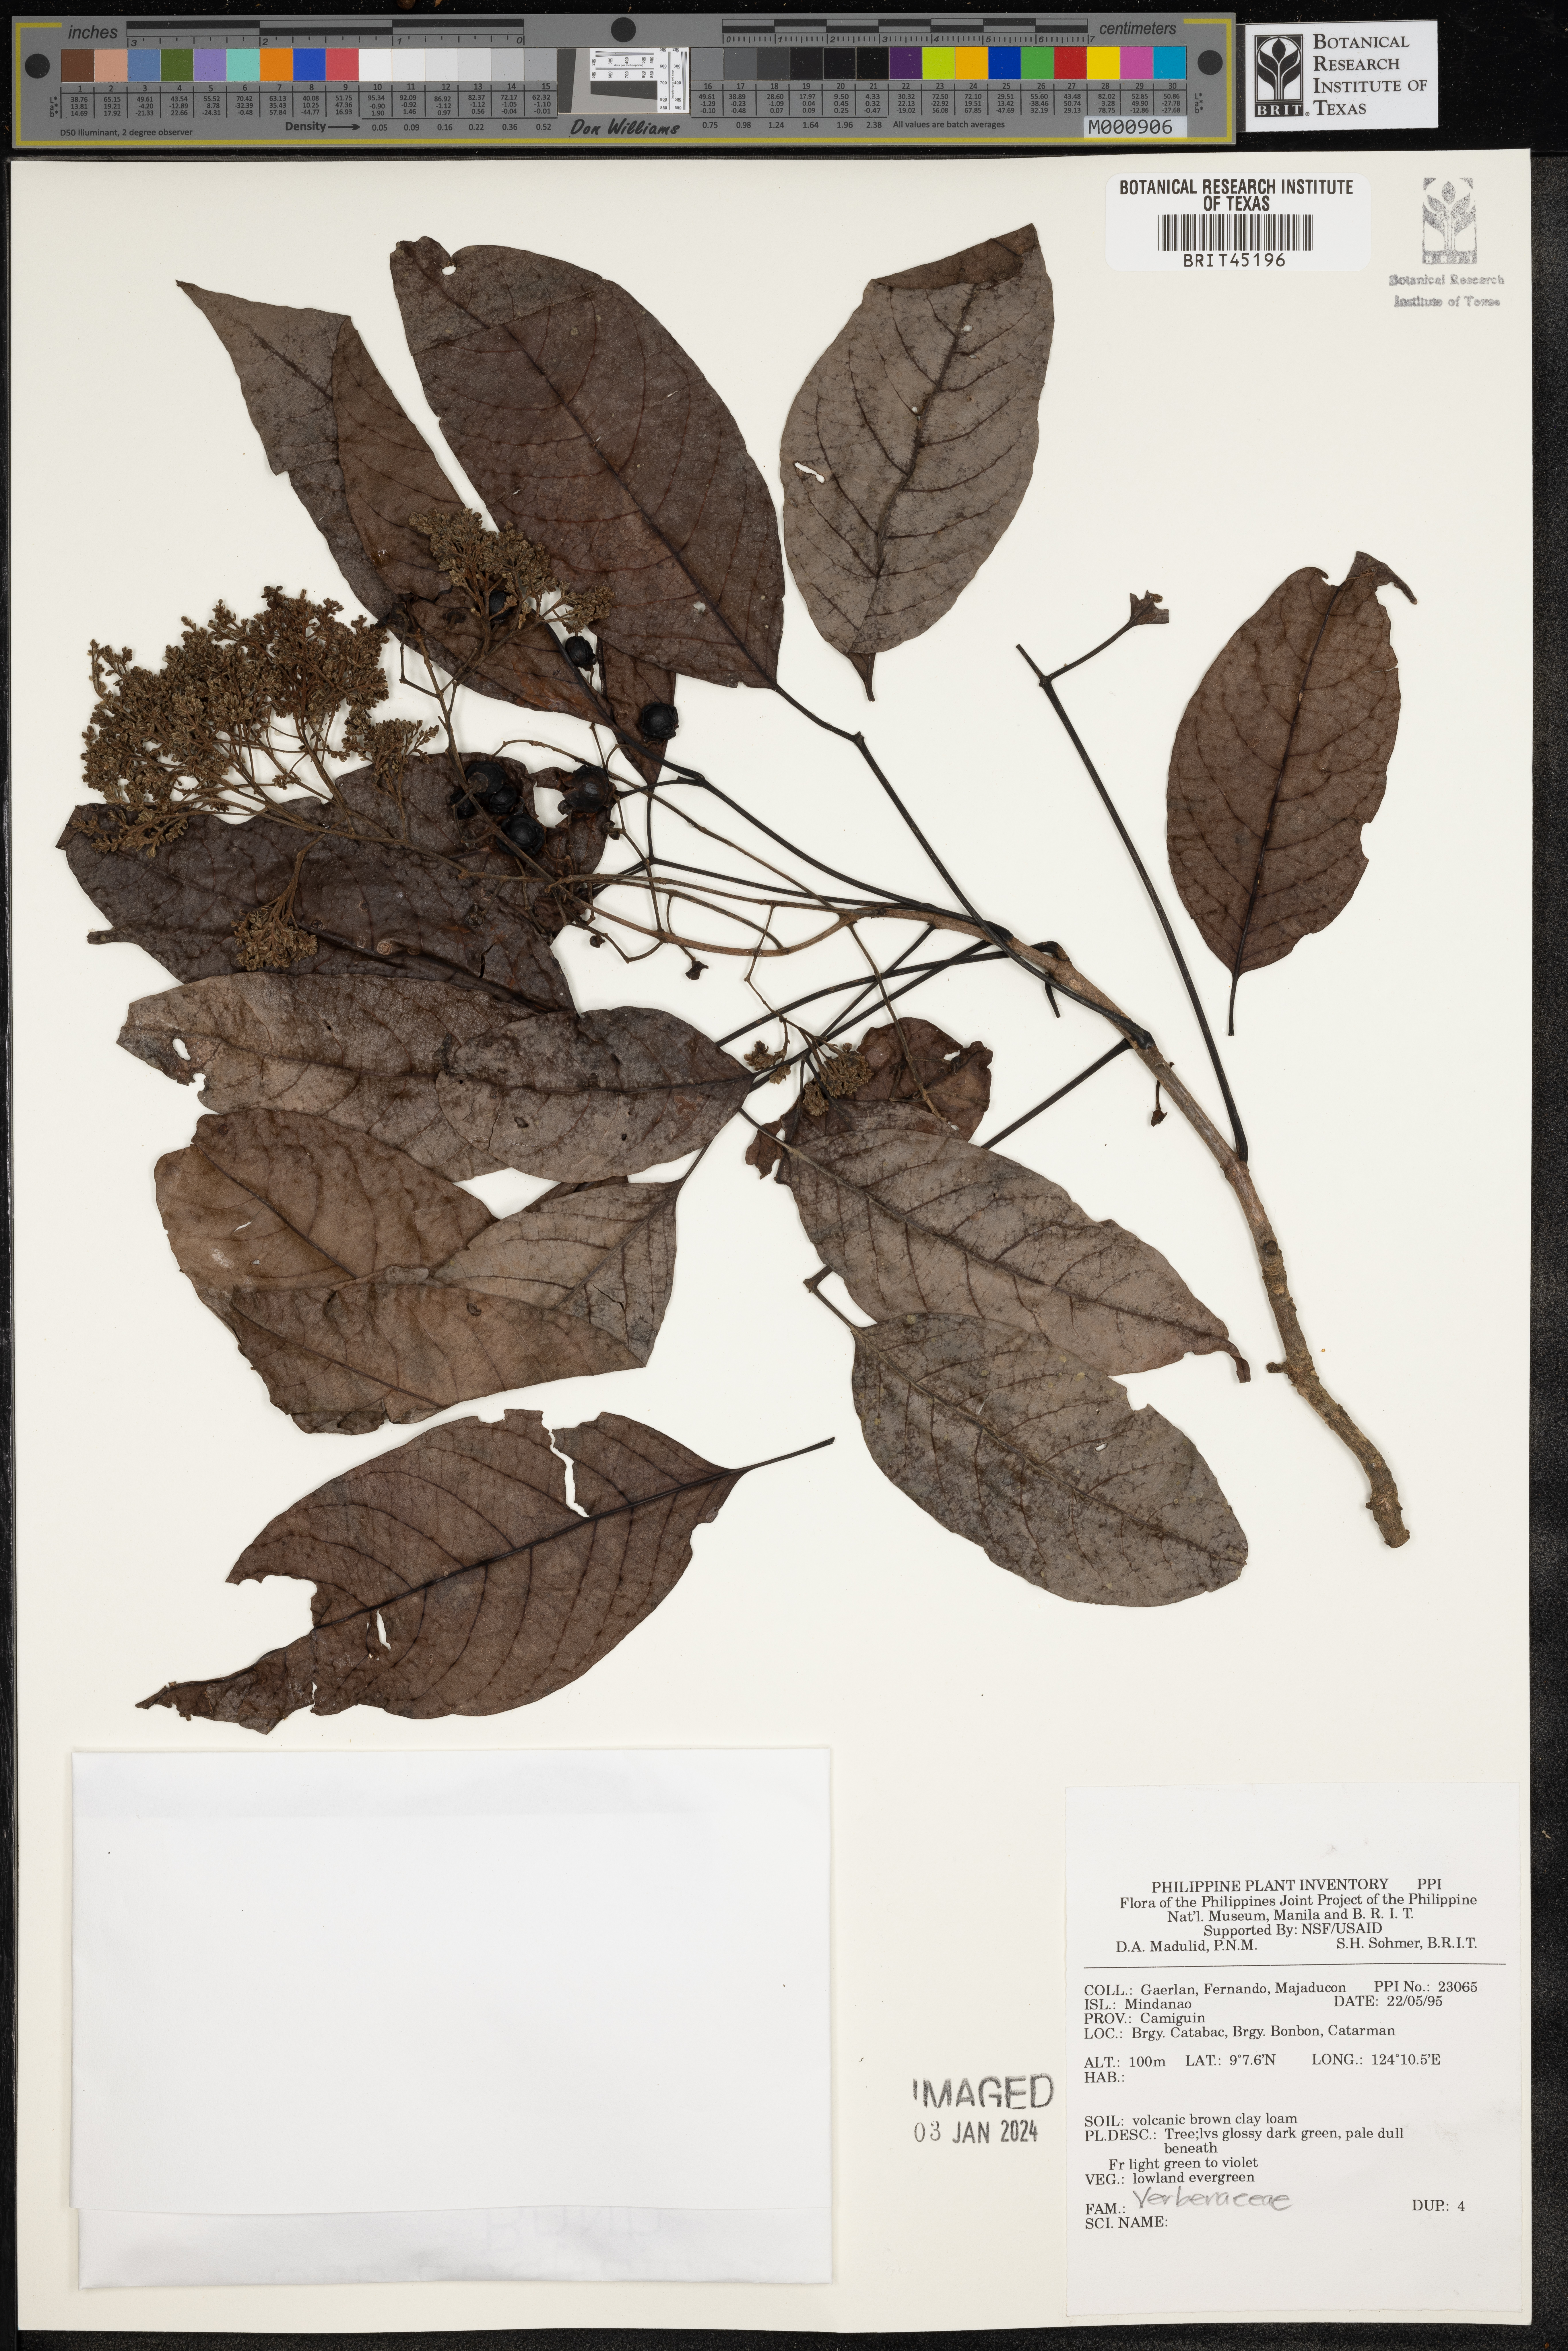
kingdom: Plantae
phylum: Tracheophyta
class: Magnoliopsida
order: Lamiales
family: Verbenaceae
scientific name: Verbenaceae
